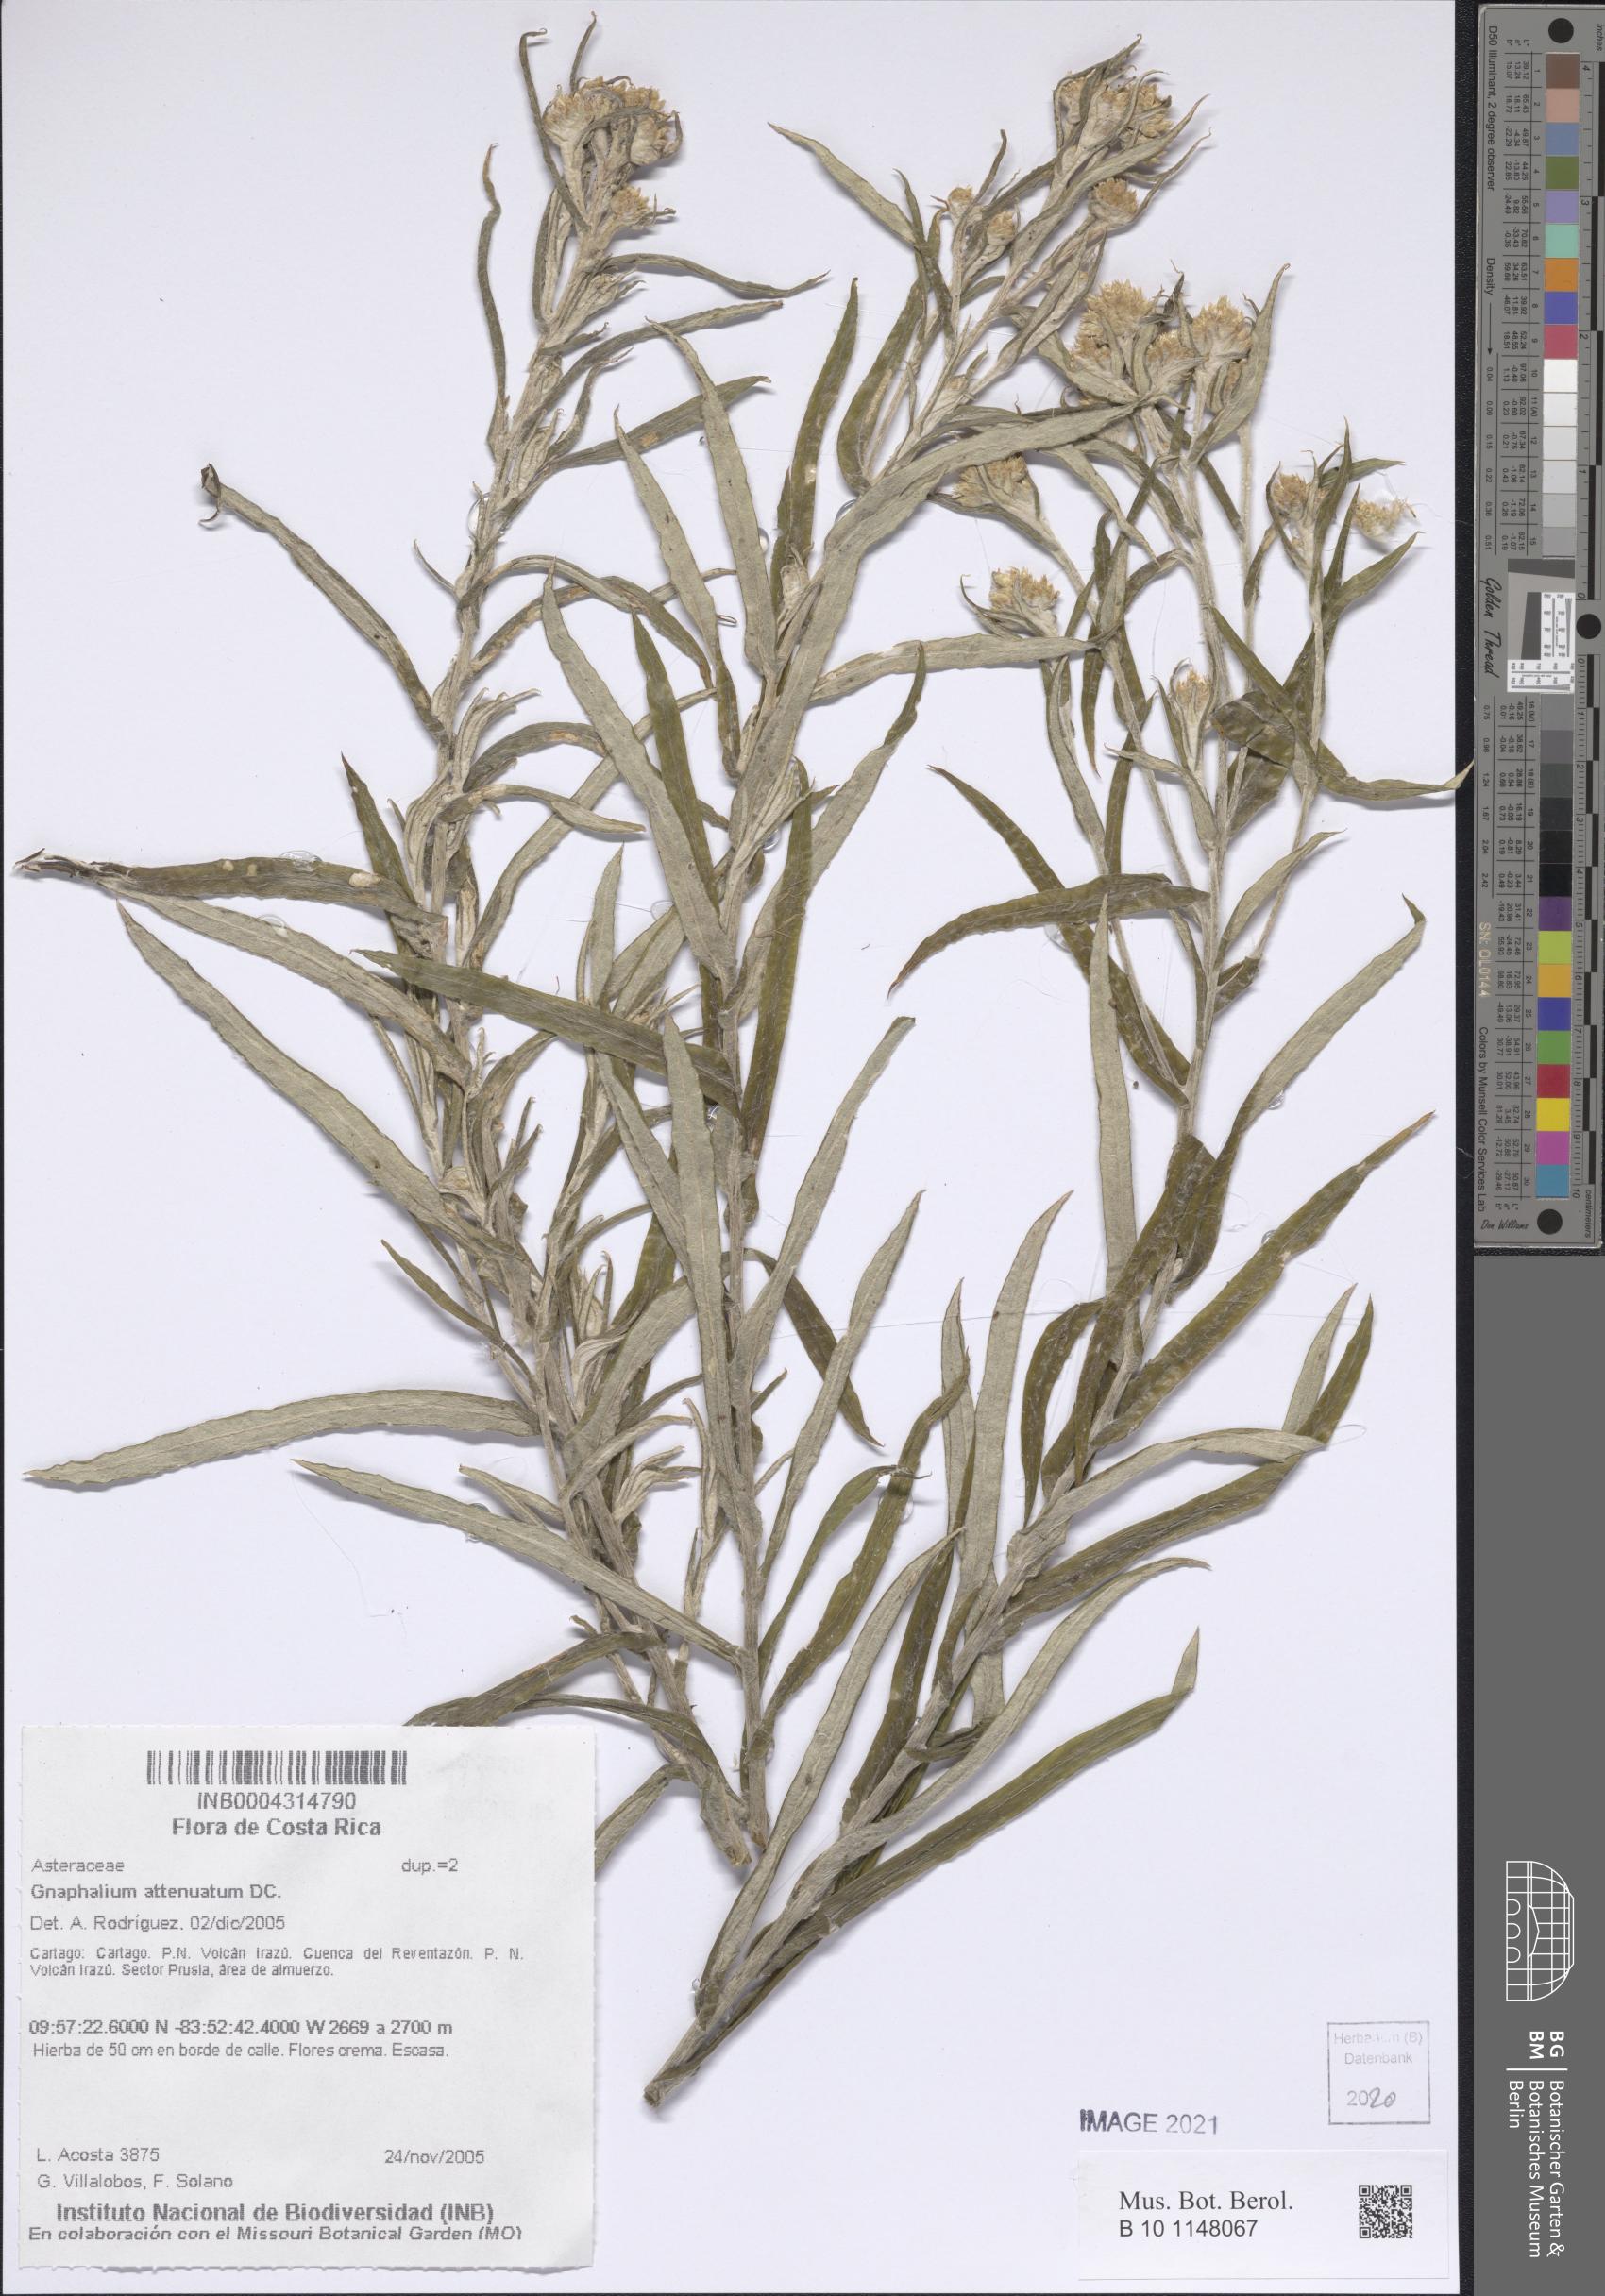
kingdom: Plantae
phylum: Tracheophyta
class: Magnoliopsida
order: Asterales
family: Asteraceae
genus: Pseudognaphalium
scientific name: Pseudognaphalium attenuatum
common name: Tapered cudweed
